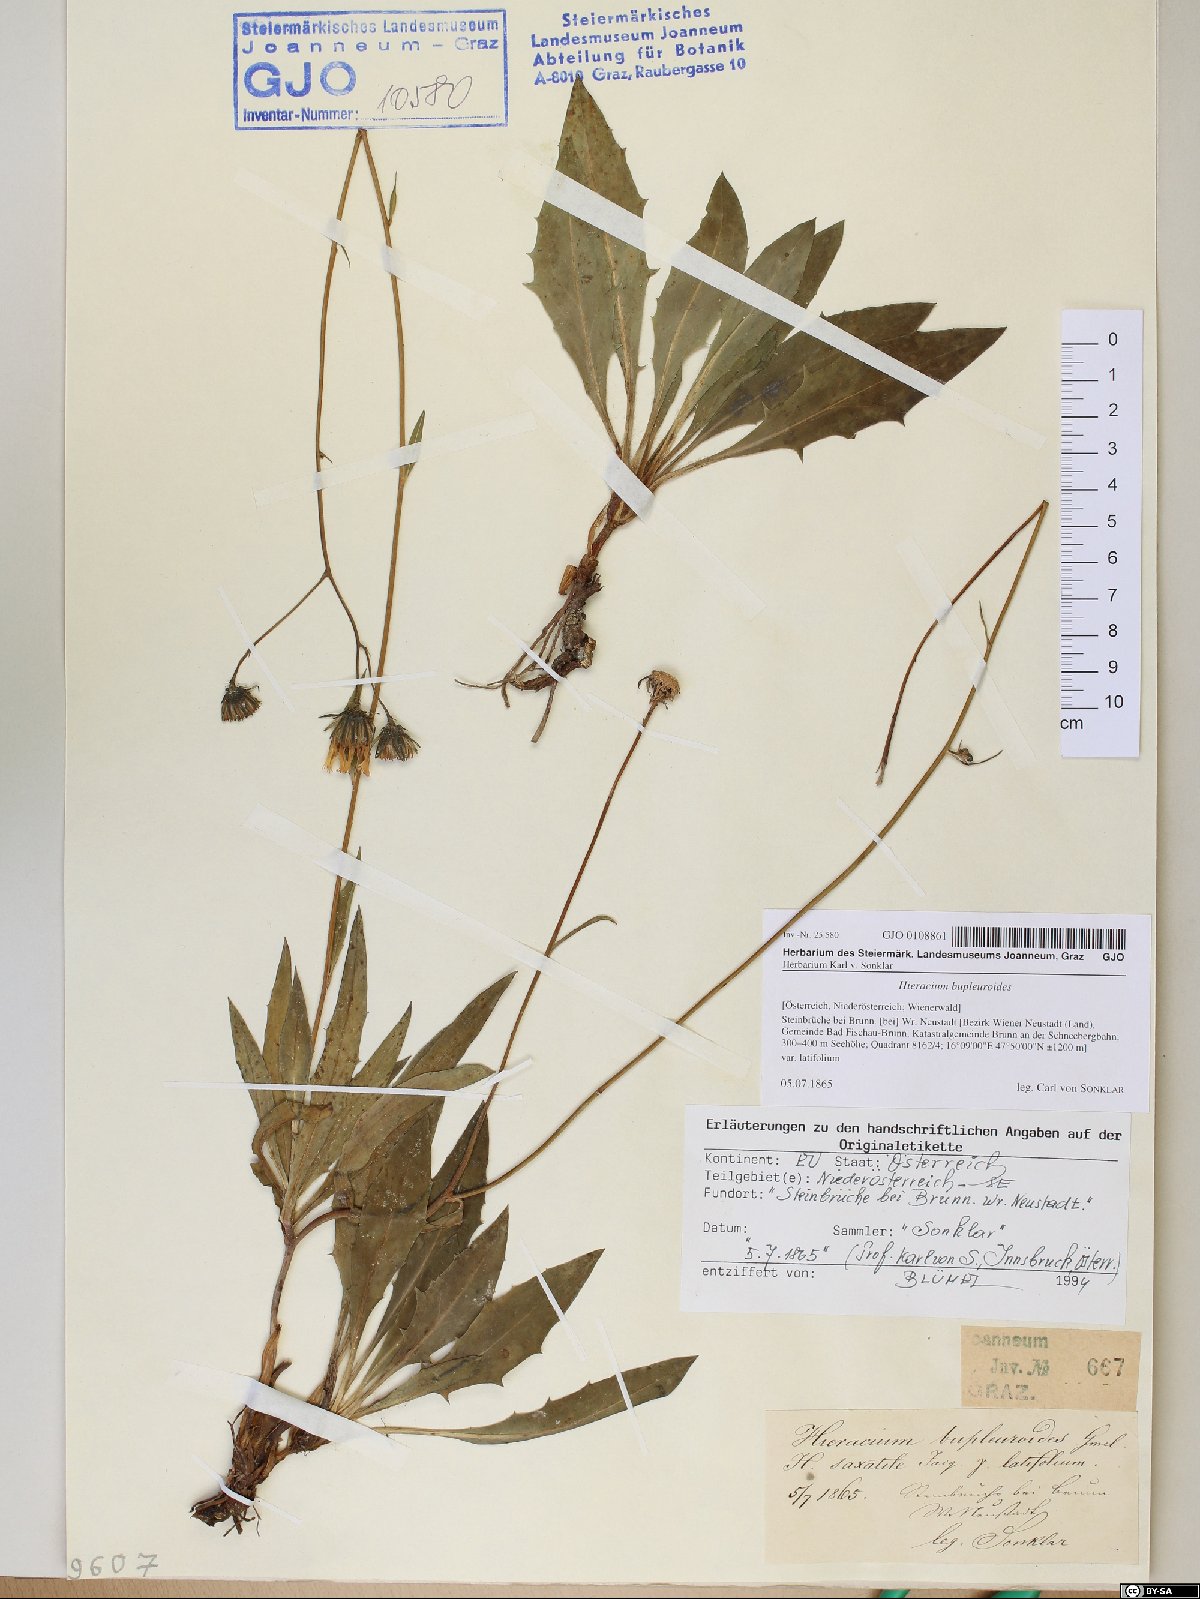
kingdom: Plantae
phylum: Tracheophyta
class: Magnoliopsida
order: Asterales
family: Asteraceae
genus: Hieracium
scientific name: Hieracium bupleuroides
